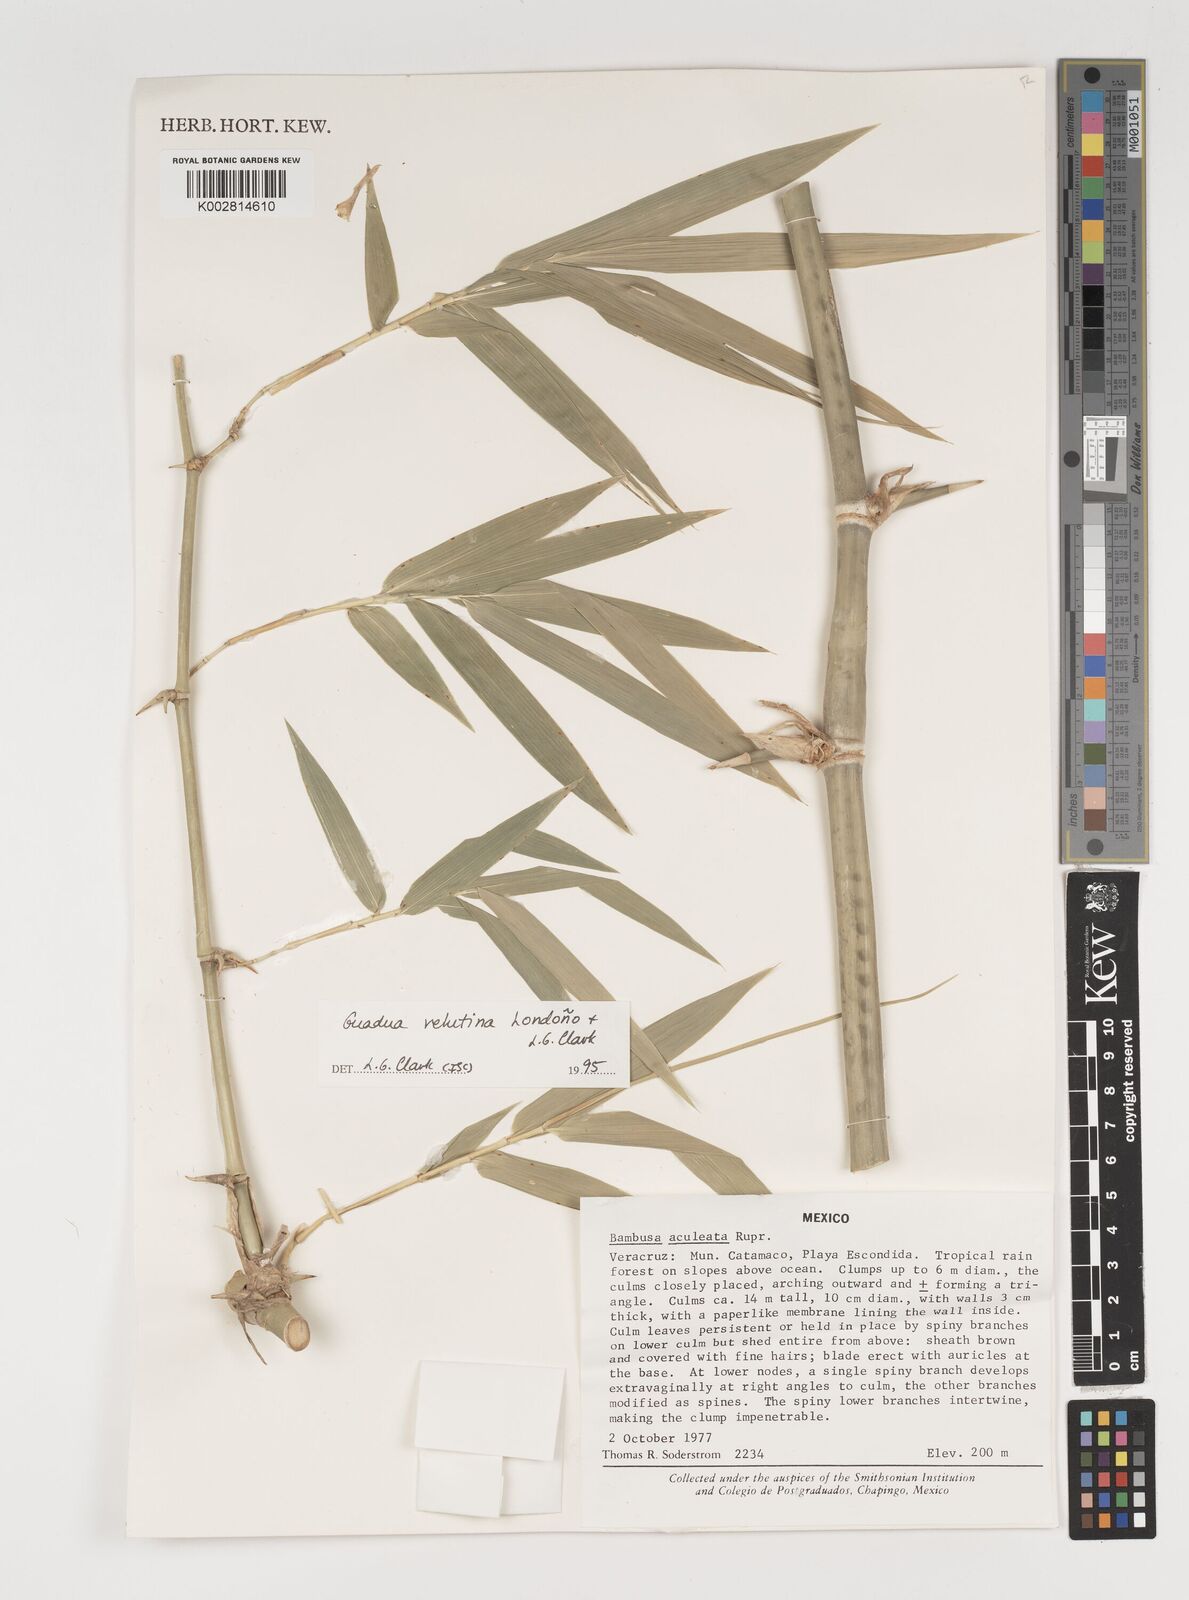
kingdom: Plantae
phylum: Tracheophyta
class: Liliopsida
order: Poales
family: Poaceae
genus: Guadua
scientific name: Guadua velutina
